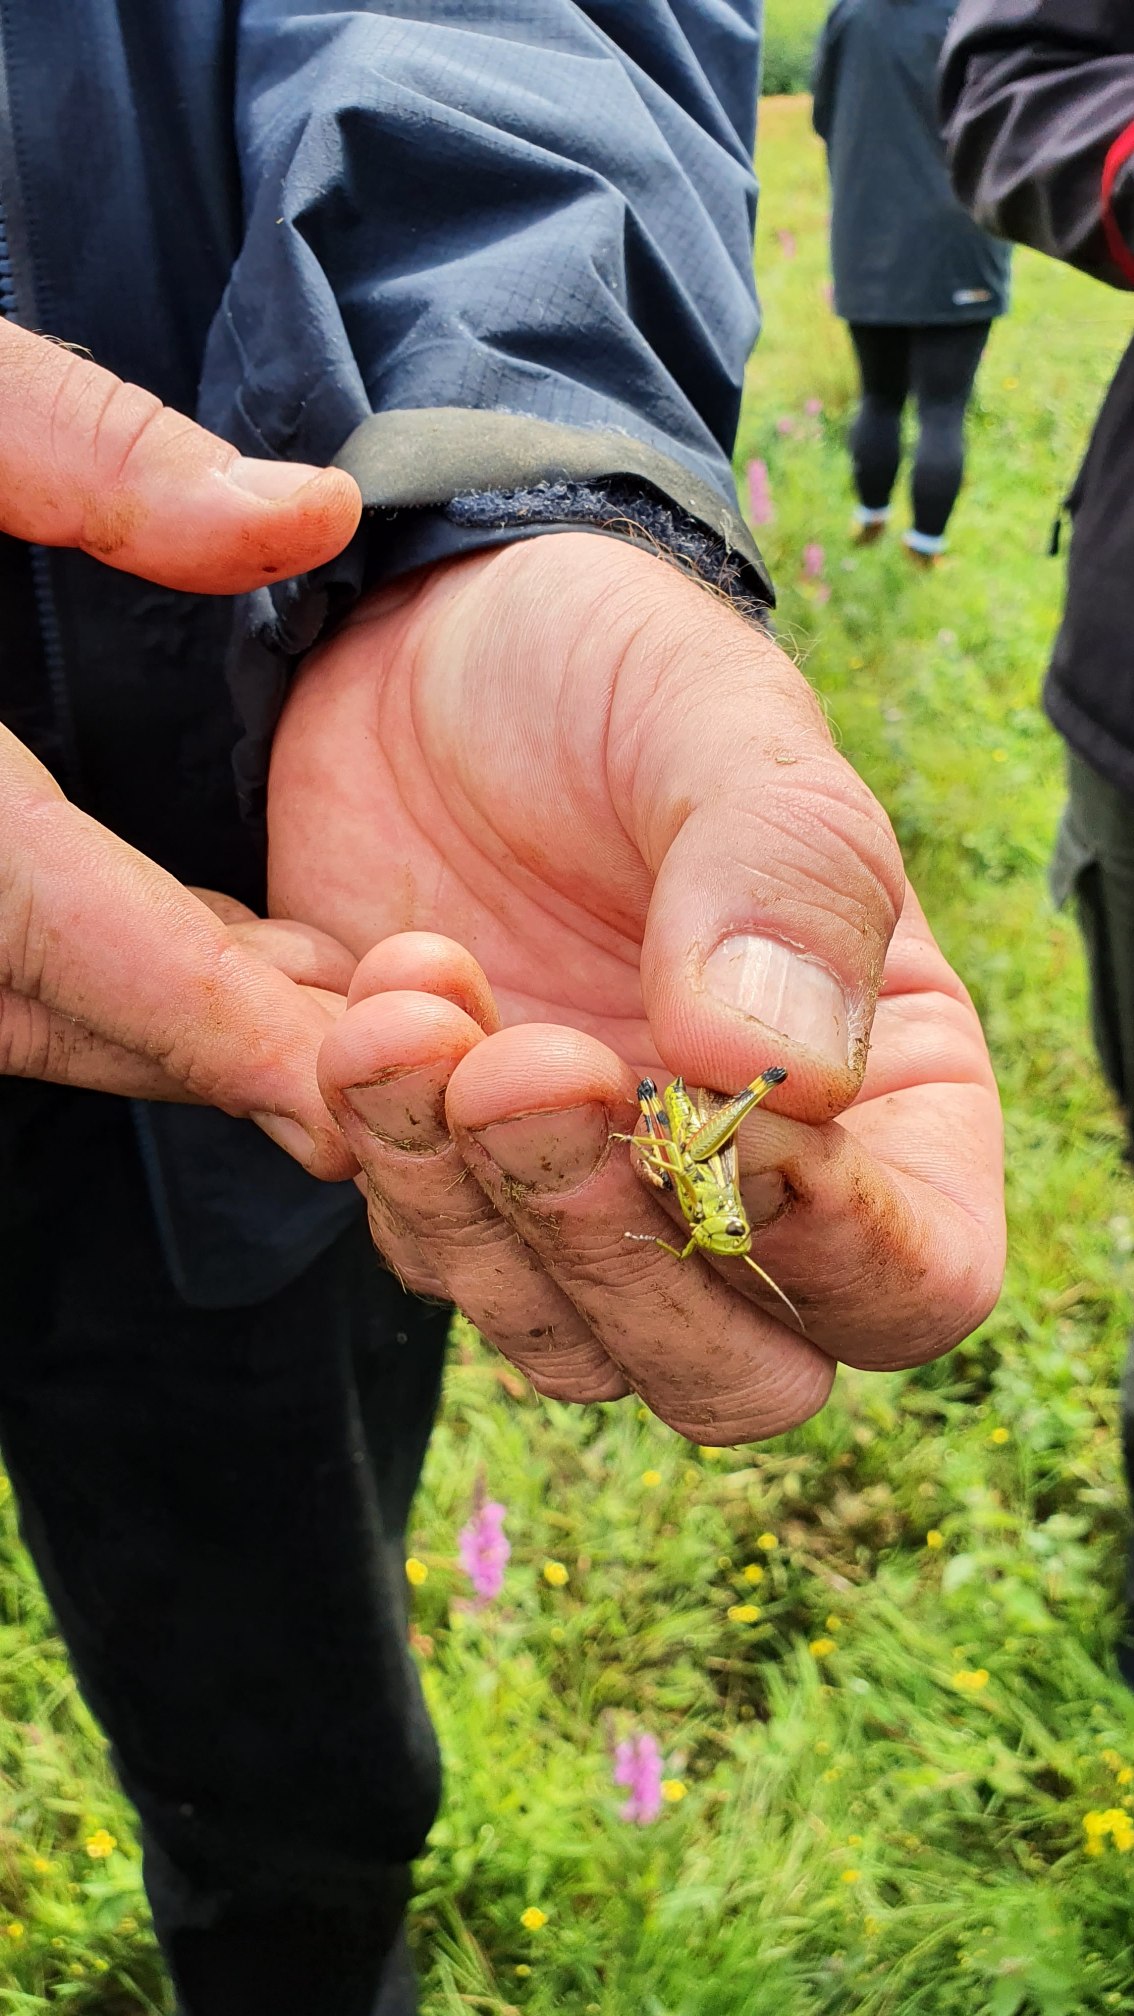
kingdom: Animalia
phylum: Arthropoda
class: Insecta
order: Orthoptera
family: Acrididae
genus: Stethophyma
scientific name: Stethophyma grossum
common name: Sumpgræshoppe
